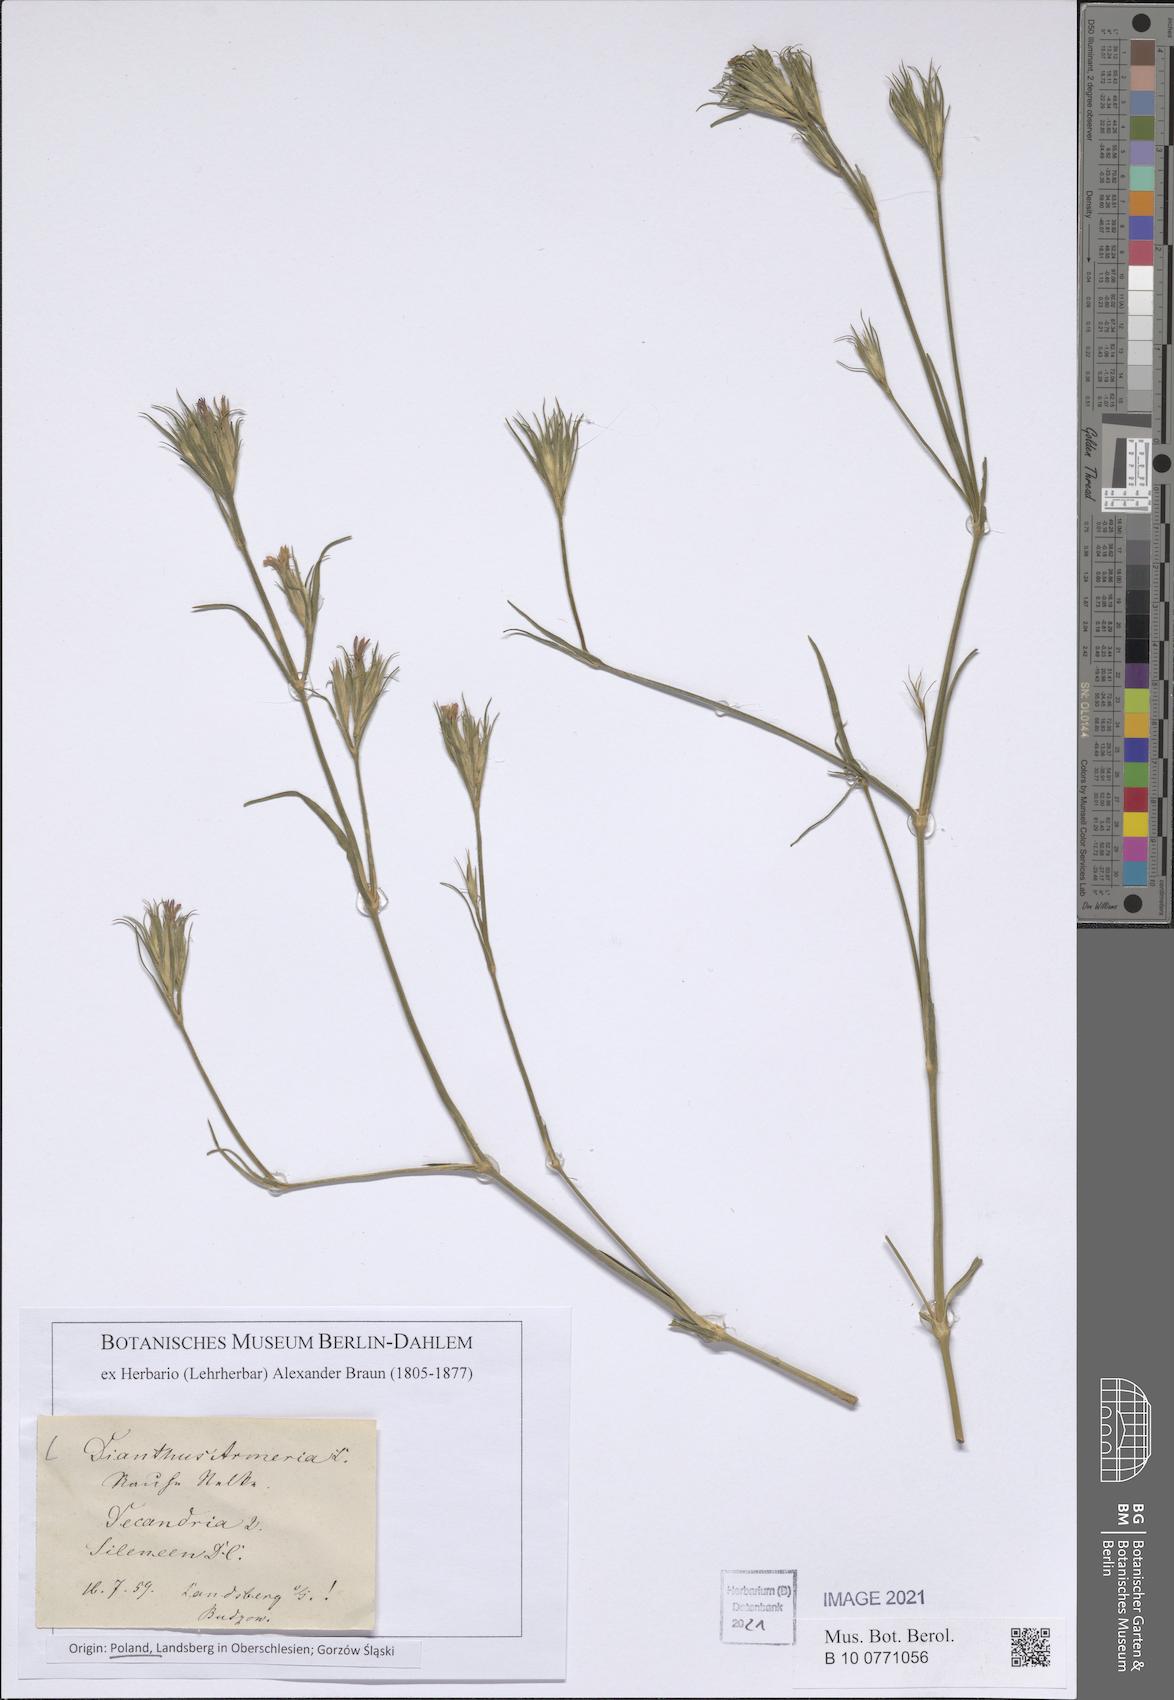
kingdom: Plantae
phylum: Tracheophyta
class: Magnoliopsida
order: Caryophyllales
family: Caryophyllaceae
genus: Dianthus
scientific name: Dianthus armeria
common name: Deptford pink
